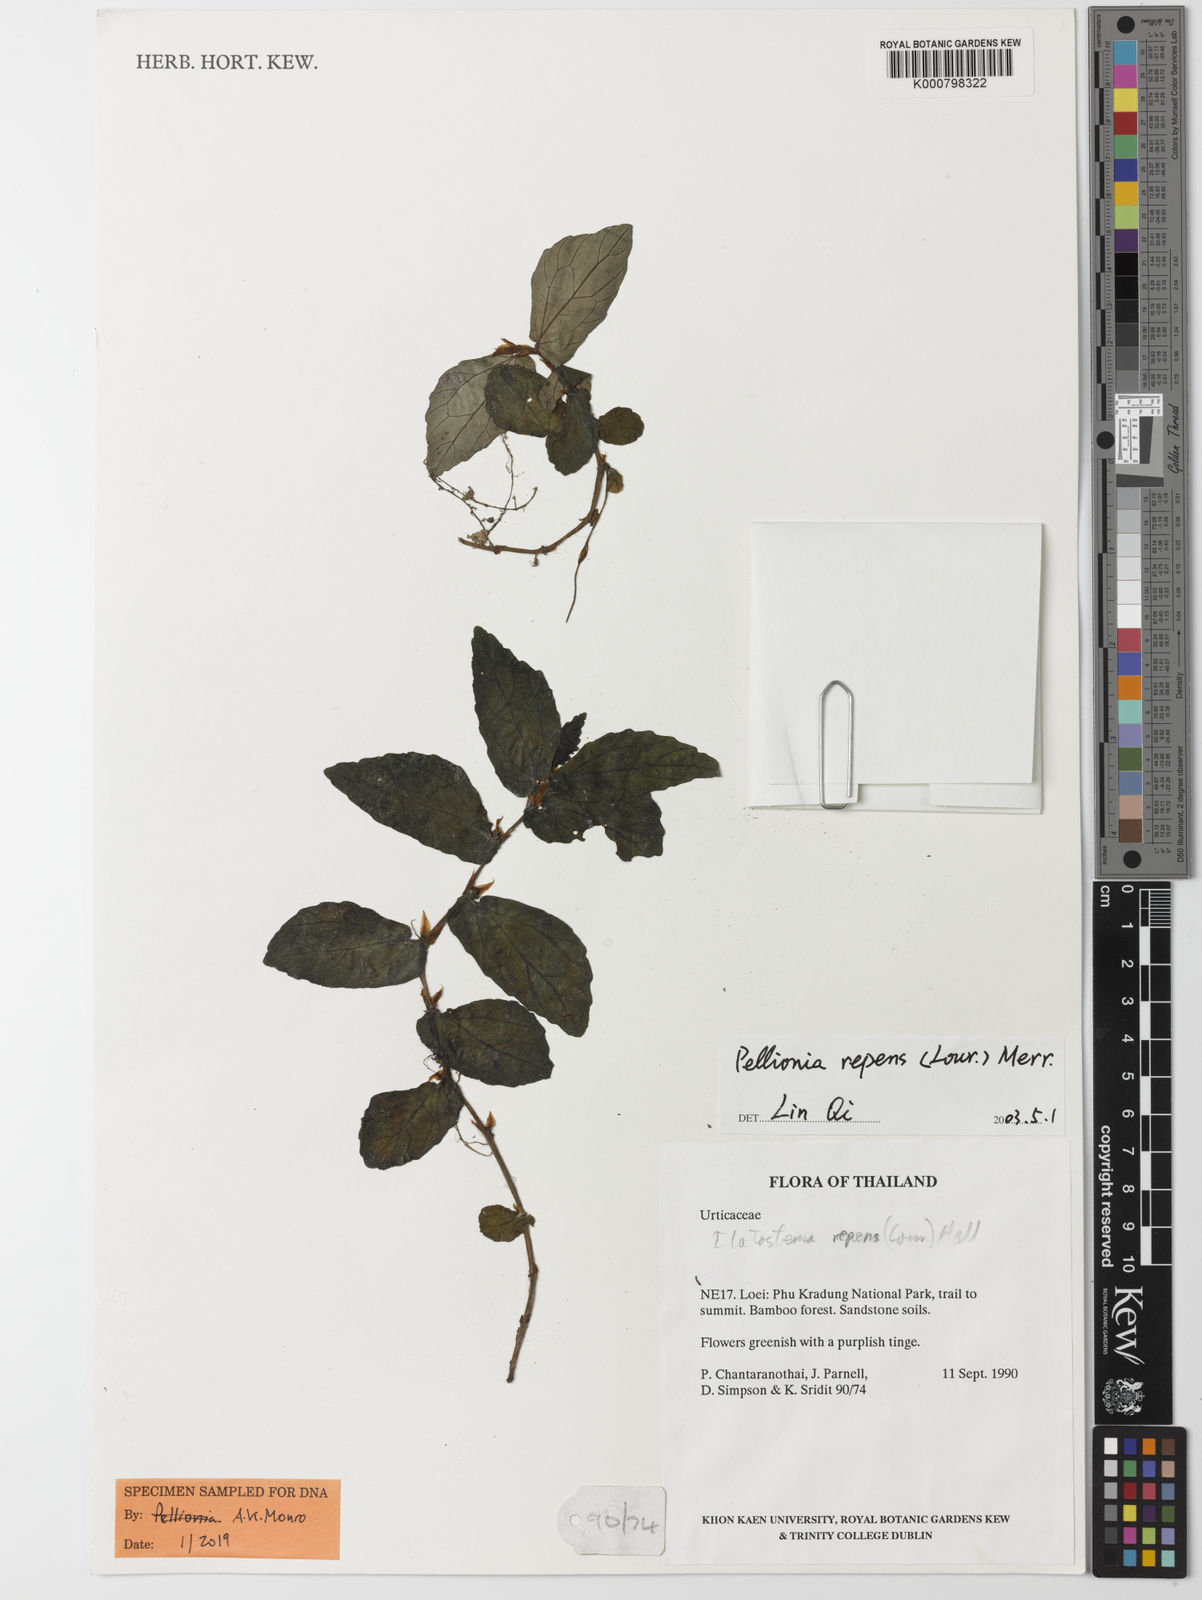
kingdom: Plantae
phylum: Tracheophyta
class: Magnoliopsida
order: Rosales
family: Urticaceae
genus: Procris
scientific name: Procris repens
